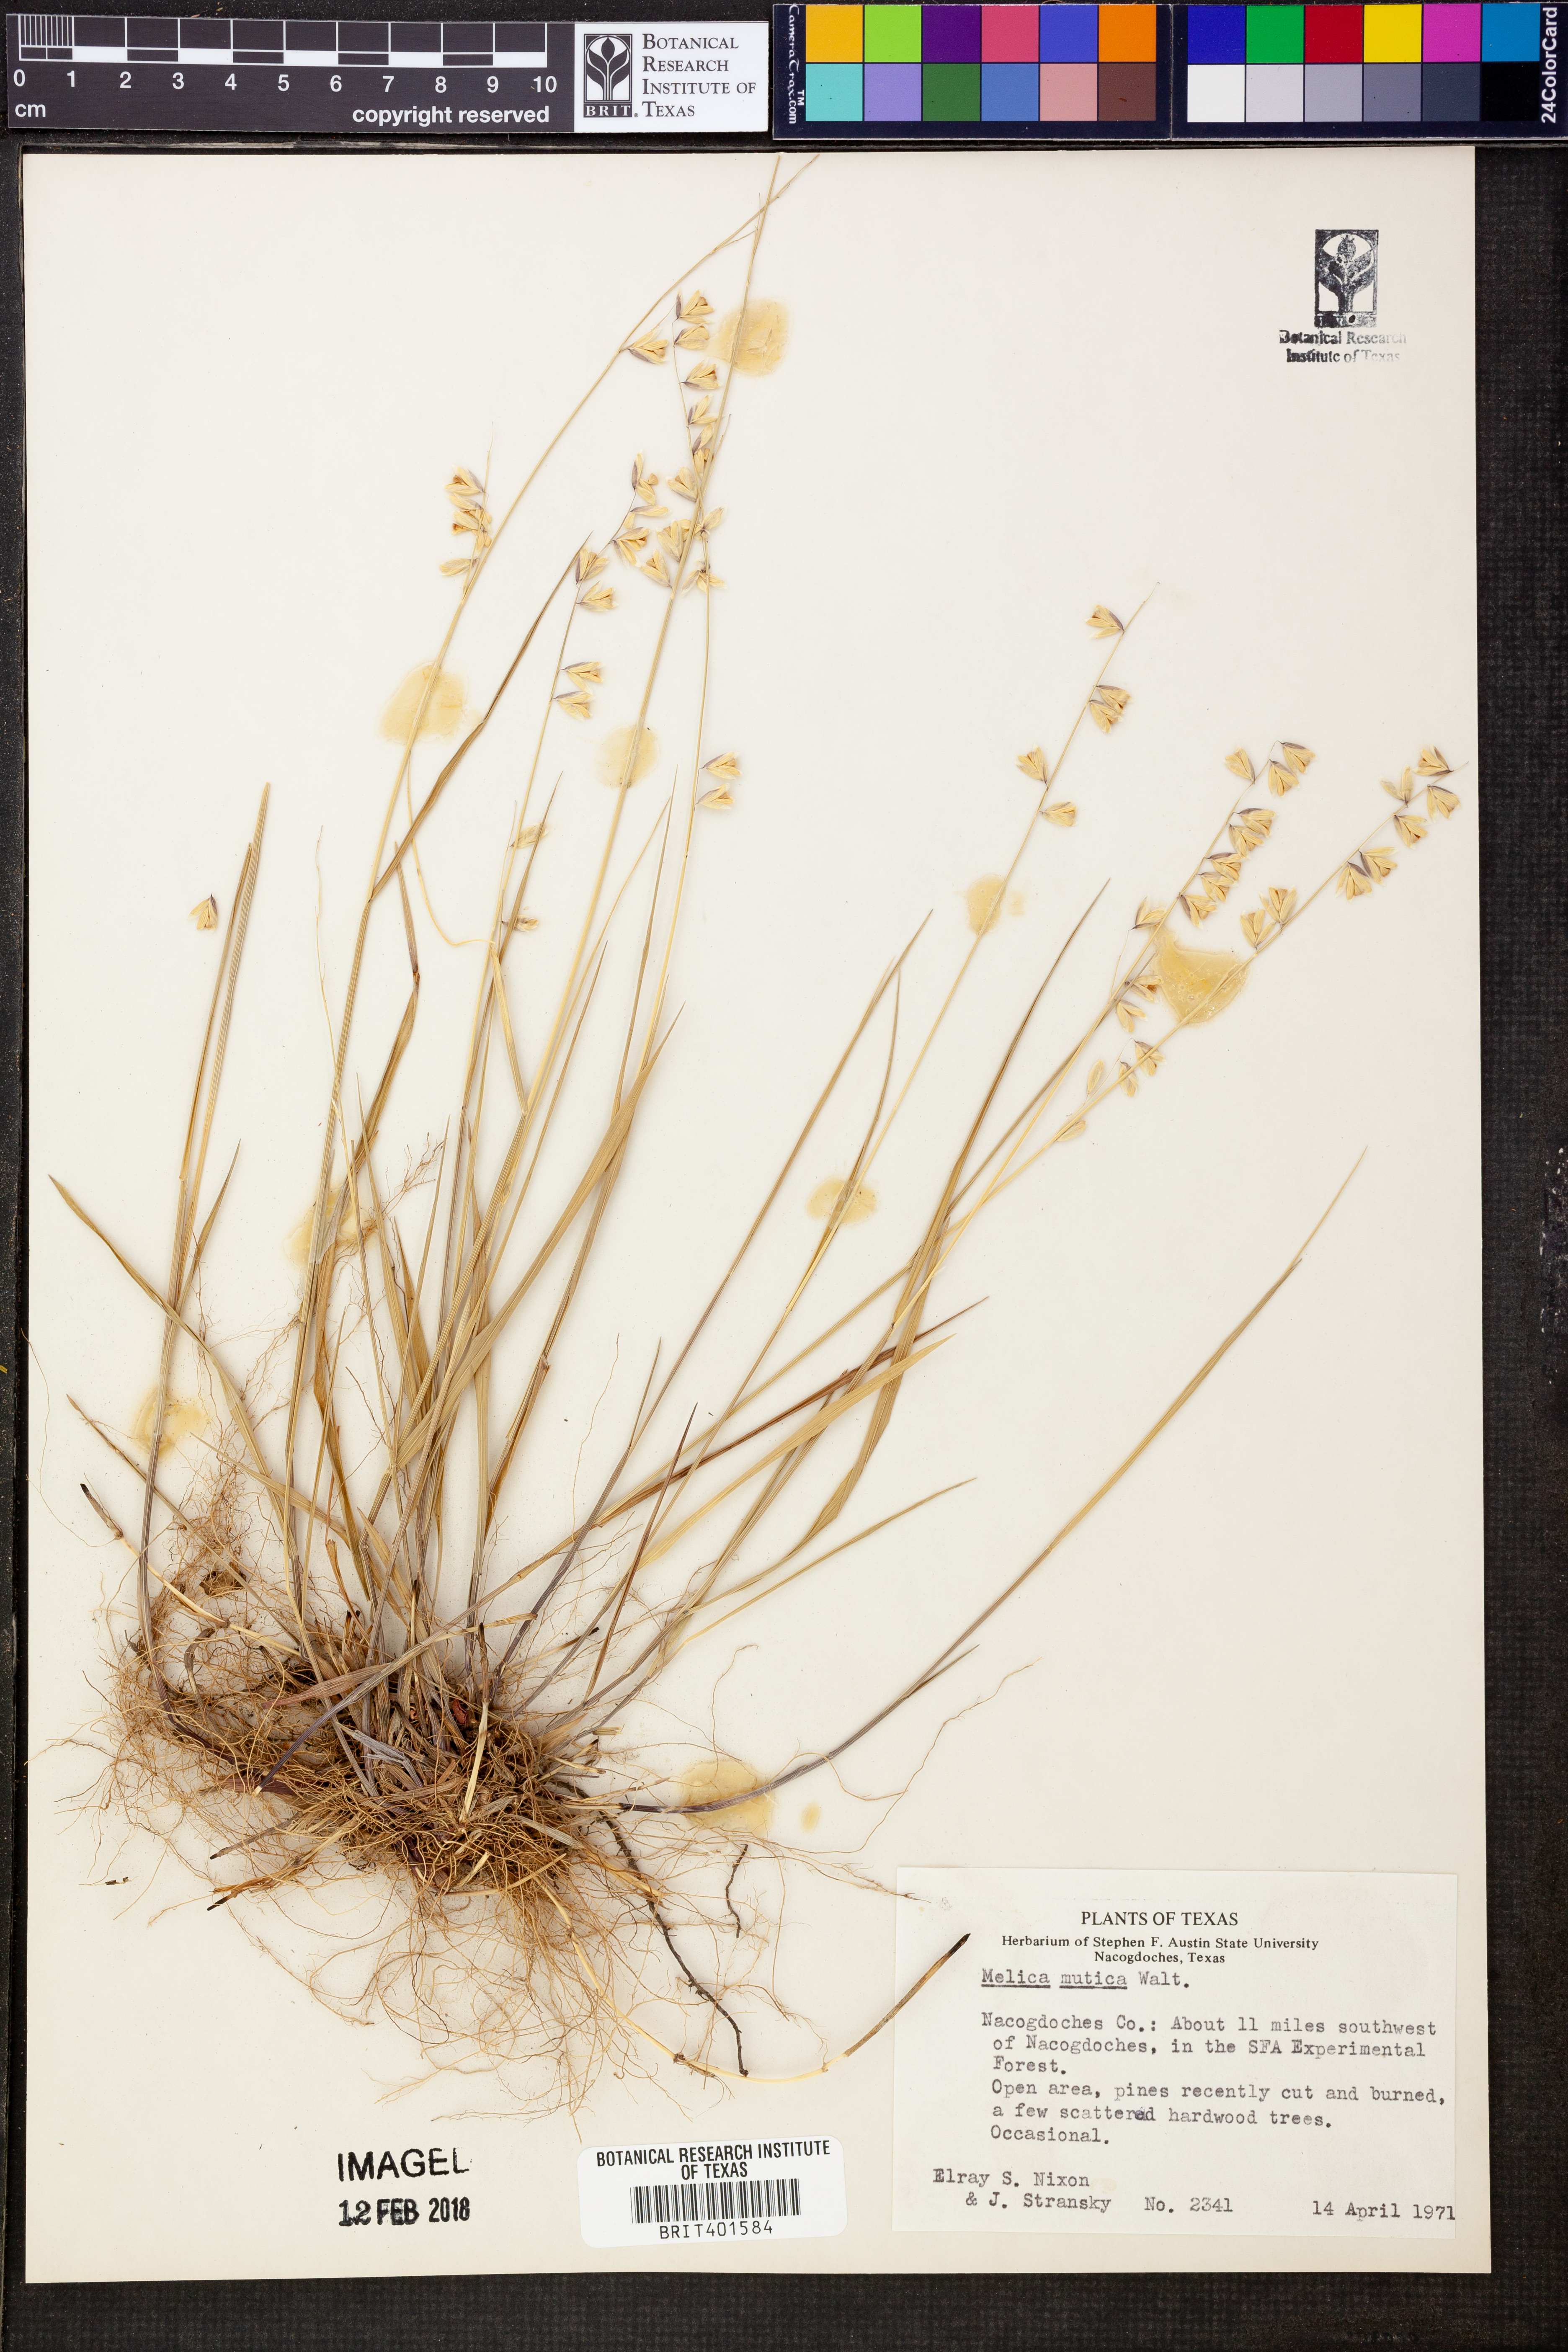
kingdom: Plantae
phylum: Tracheophyta
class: Liliopsida
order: Poales
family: Poaceae
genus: Melica
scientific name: Melica mutica
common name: Two-flower melic
